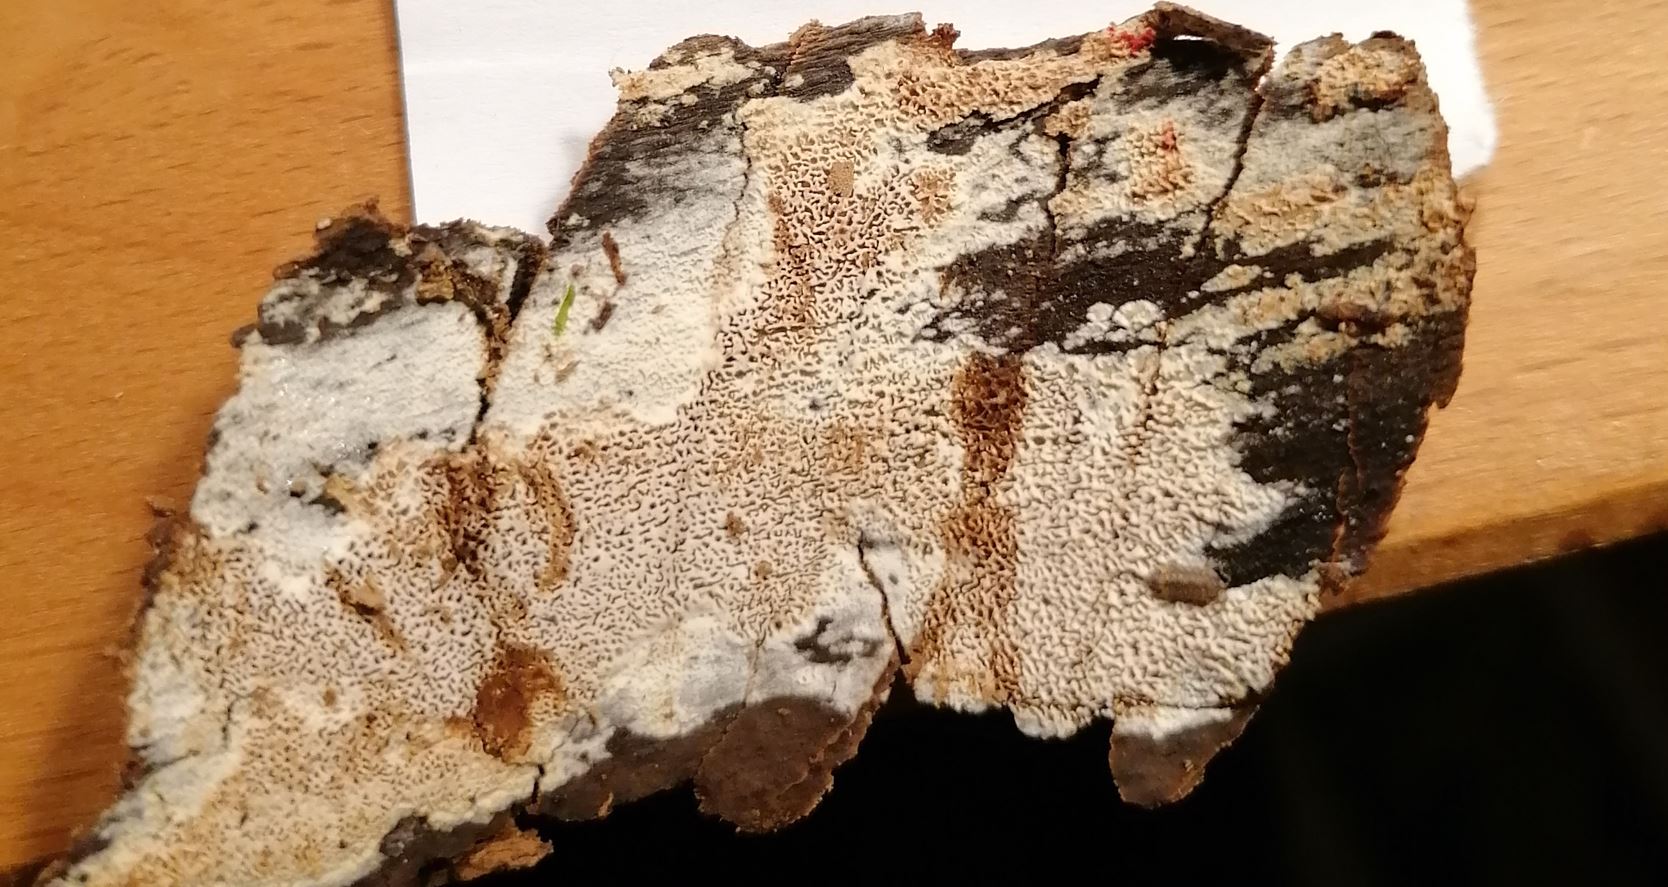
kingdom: Fungi
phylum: Basidiomycota
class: Agaricomycetes
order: Auriculariales
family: Aporpiaceae
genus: Aporpium
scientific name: Aporpium macroporum
